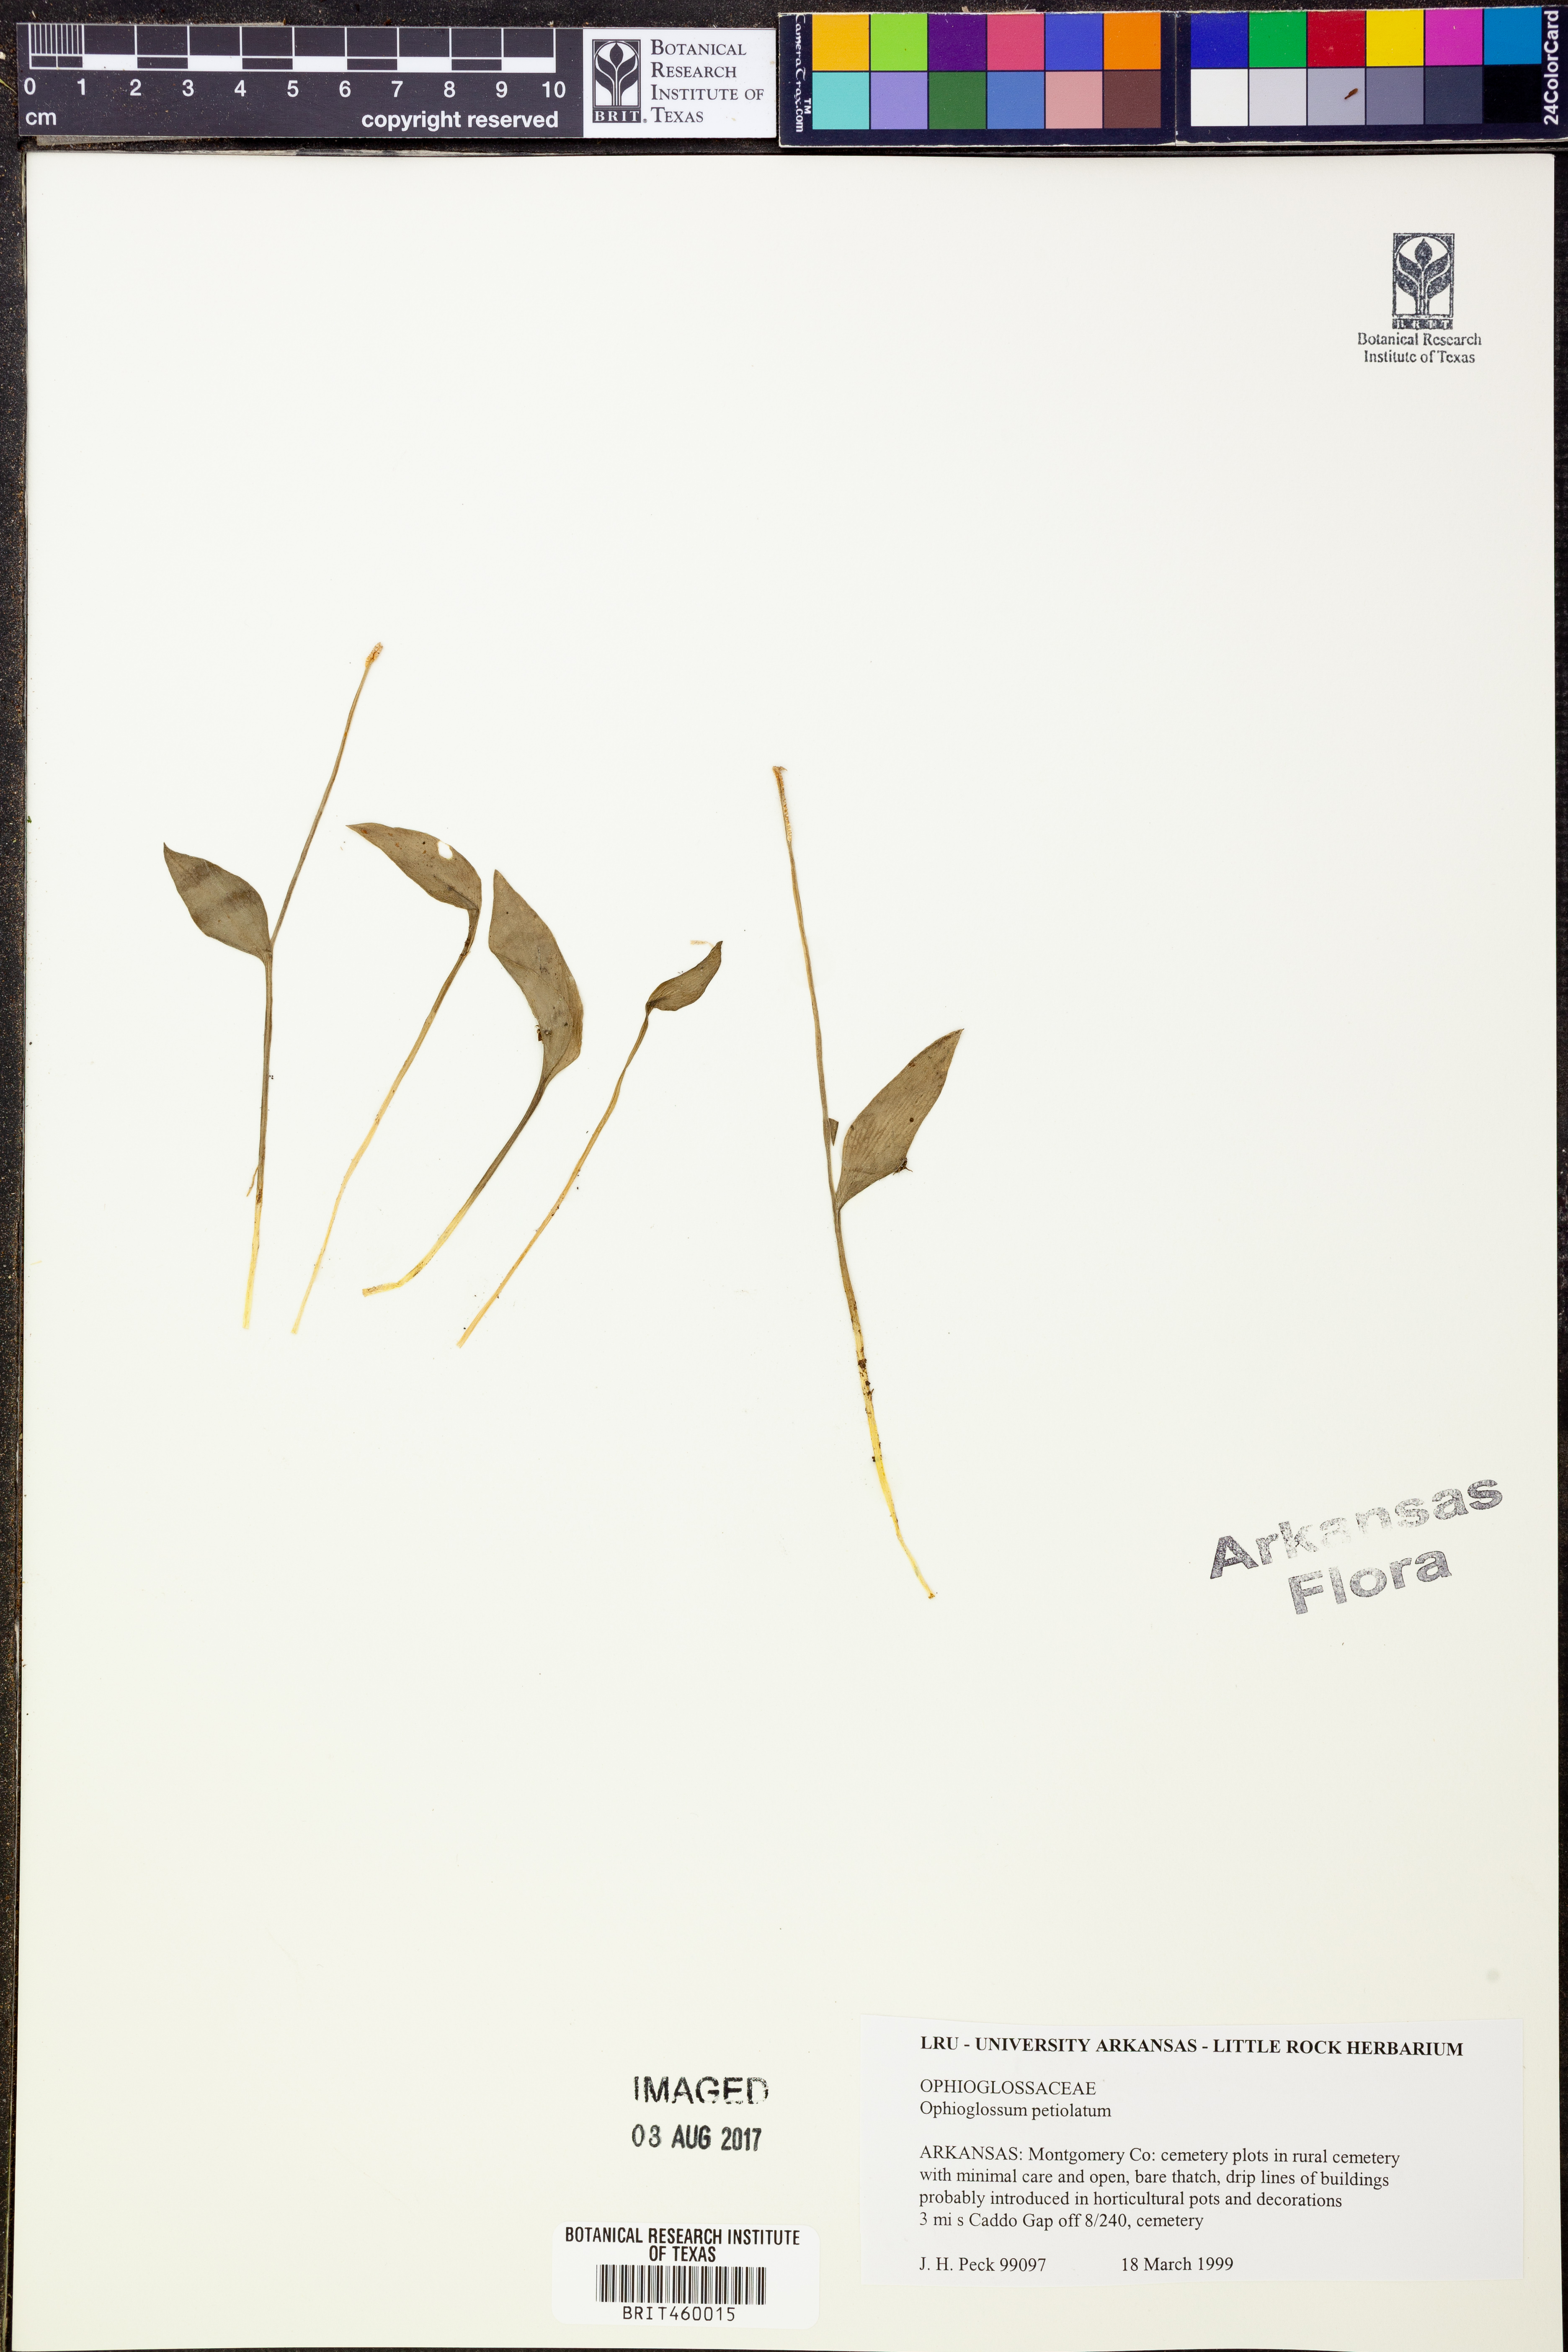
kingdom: Plantae
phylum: Tracheophyta
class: Polypodiopsida
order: Ophioglossales
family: Ophioglossaceae
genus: Ophioglossum
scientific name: Ophioglossum petiolatum
